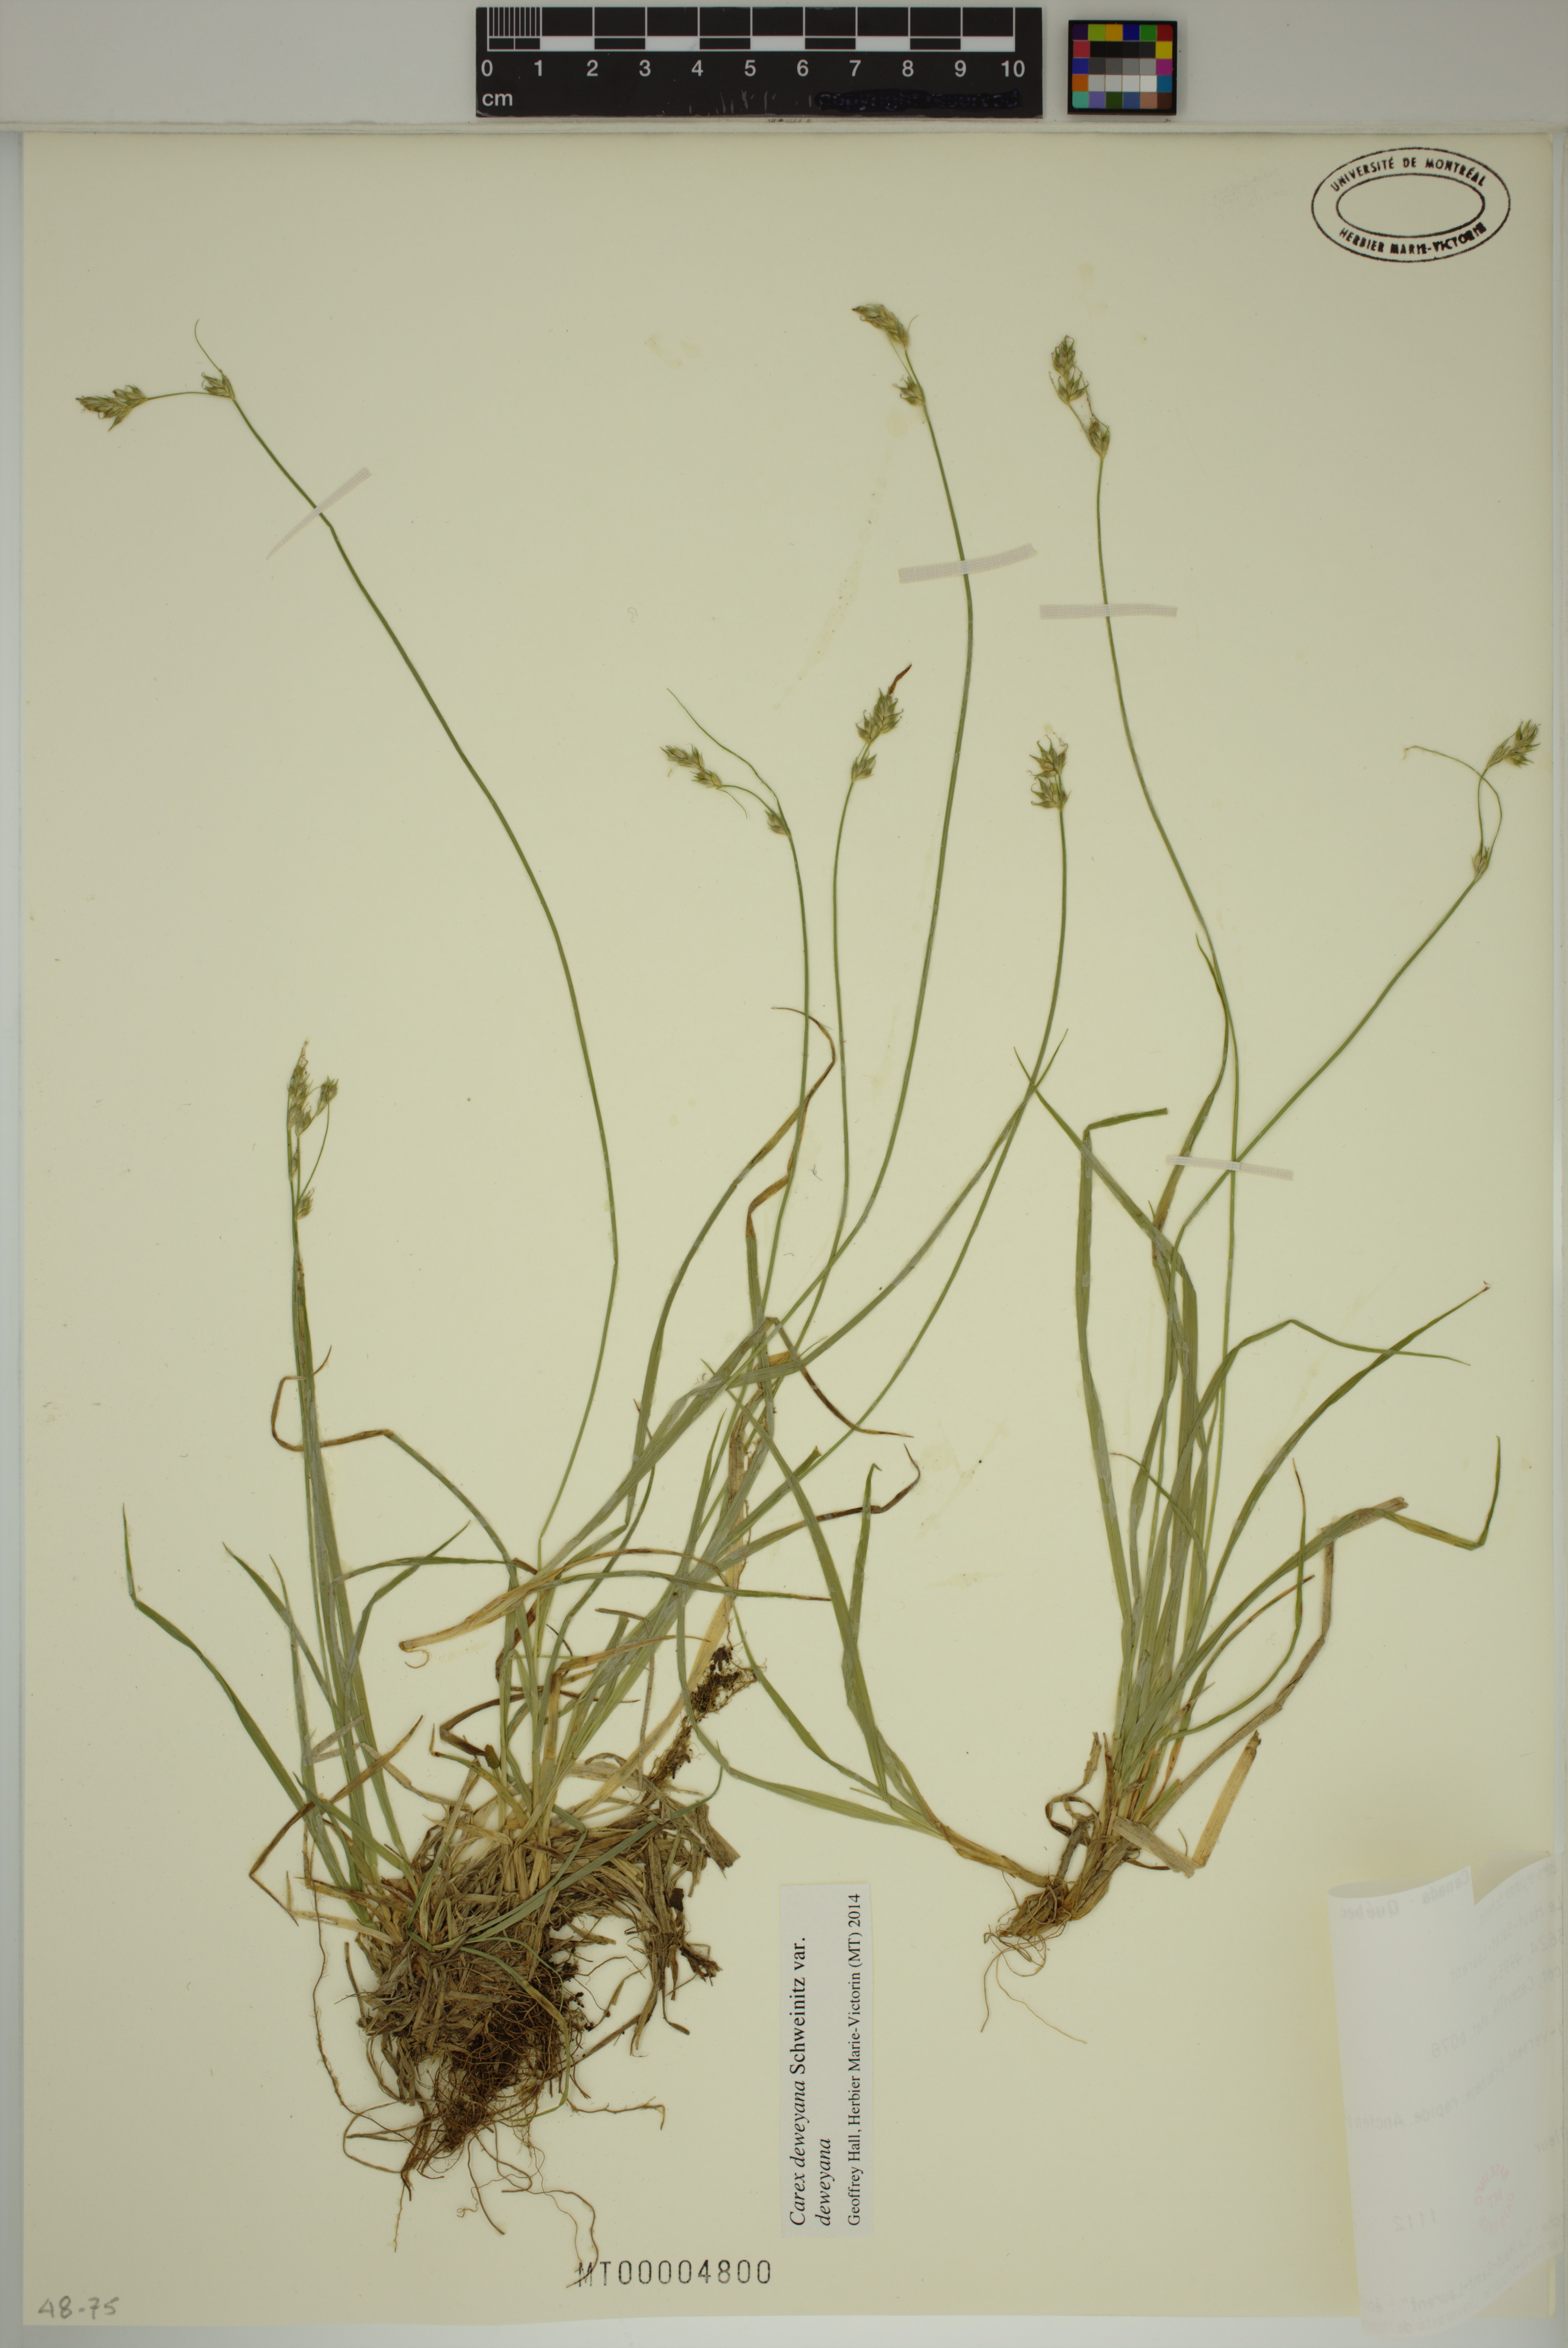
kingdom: Plantae
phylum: Tracheophyta
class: Liliopsida
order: Poales
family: Cyperaceae
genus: Carex
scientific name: Carex deweyana
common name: Dewey's sedge
